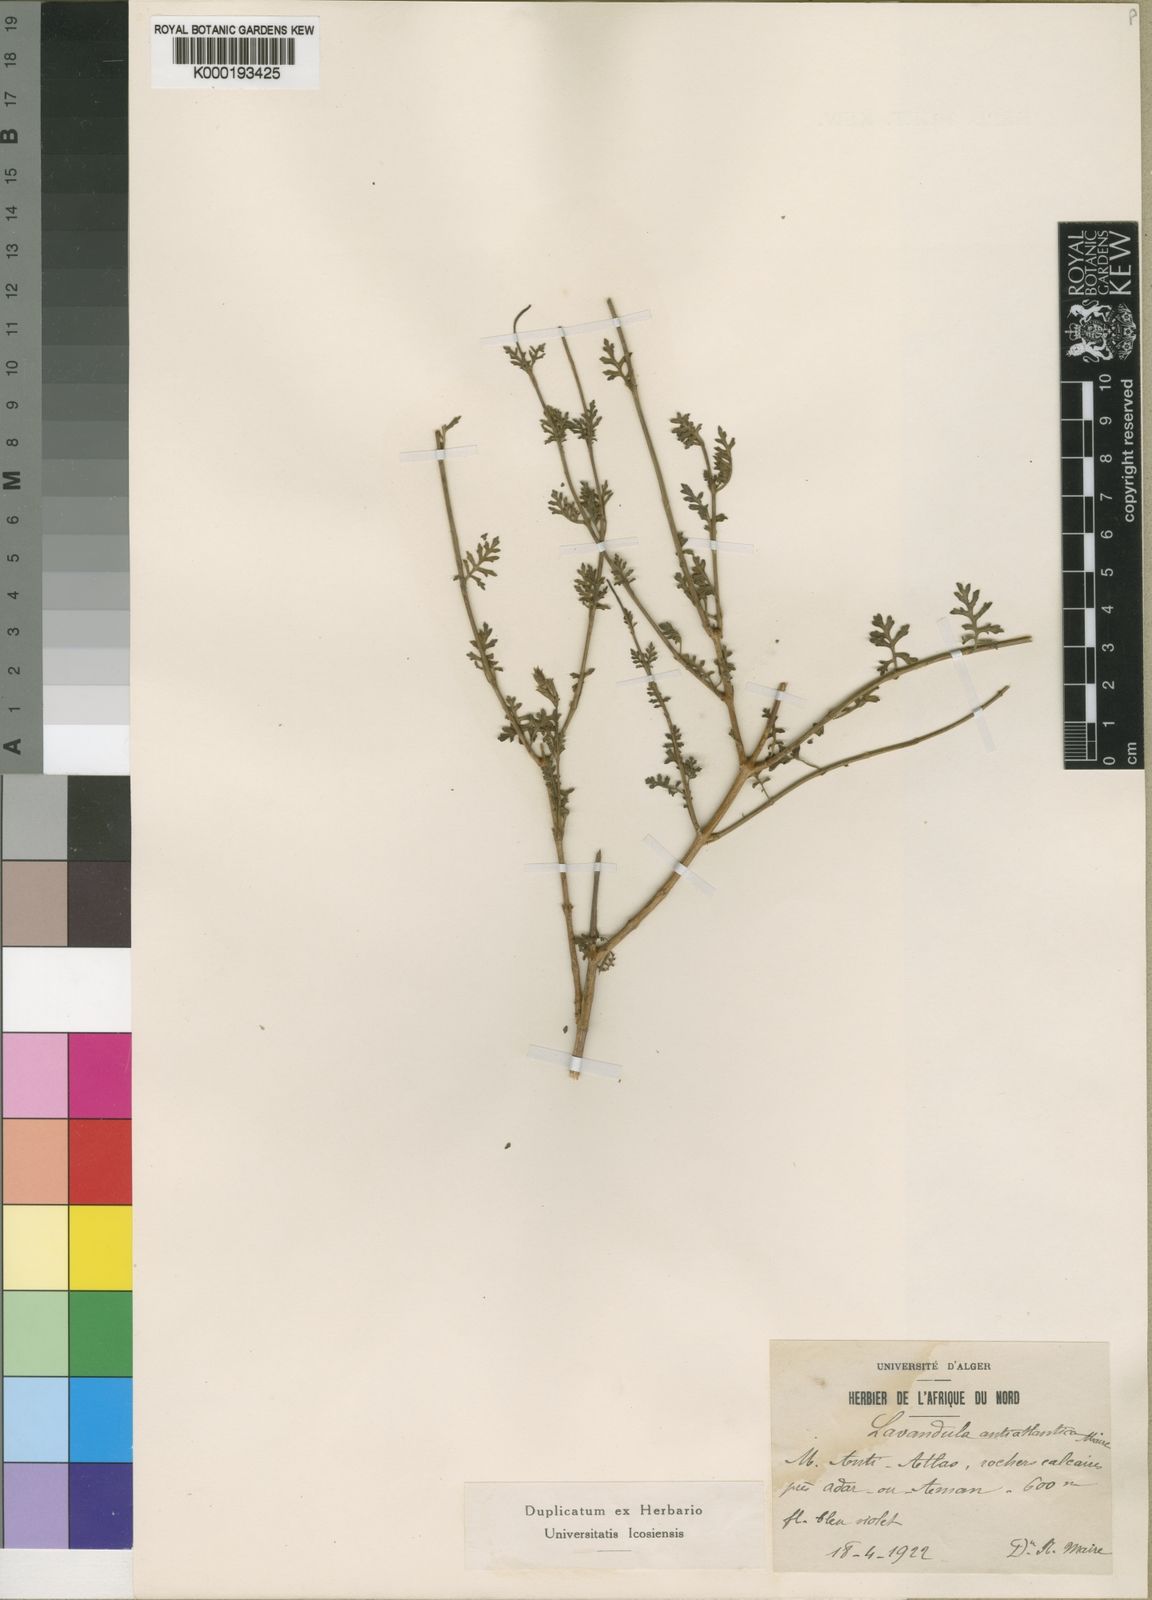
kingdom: Plantae
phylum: Tracheophyta
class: Magnoliopsida
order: Lamiales
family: Lamiaceae
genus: Lavandula
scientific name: Lavandula mairei
